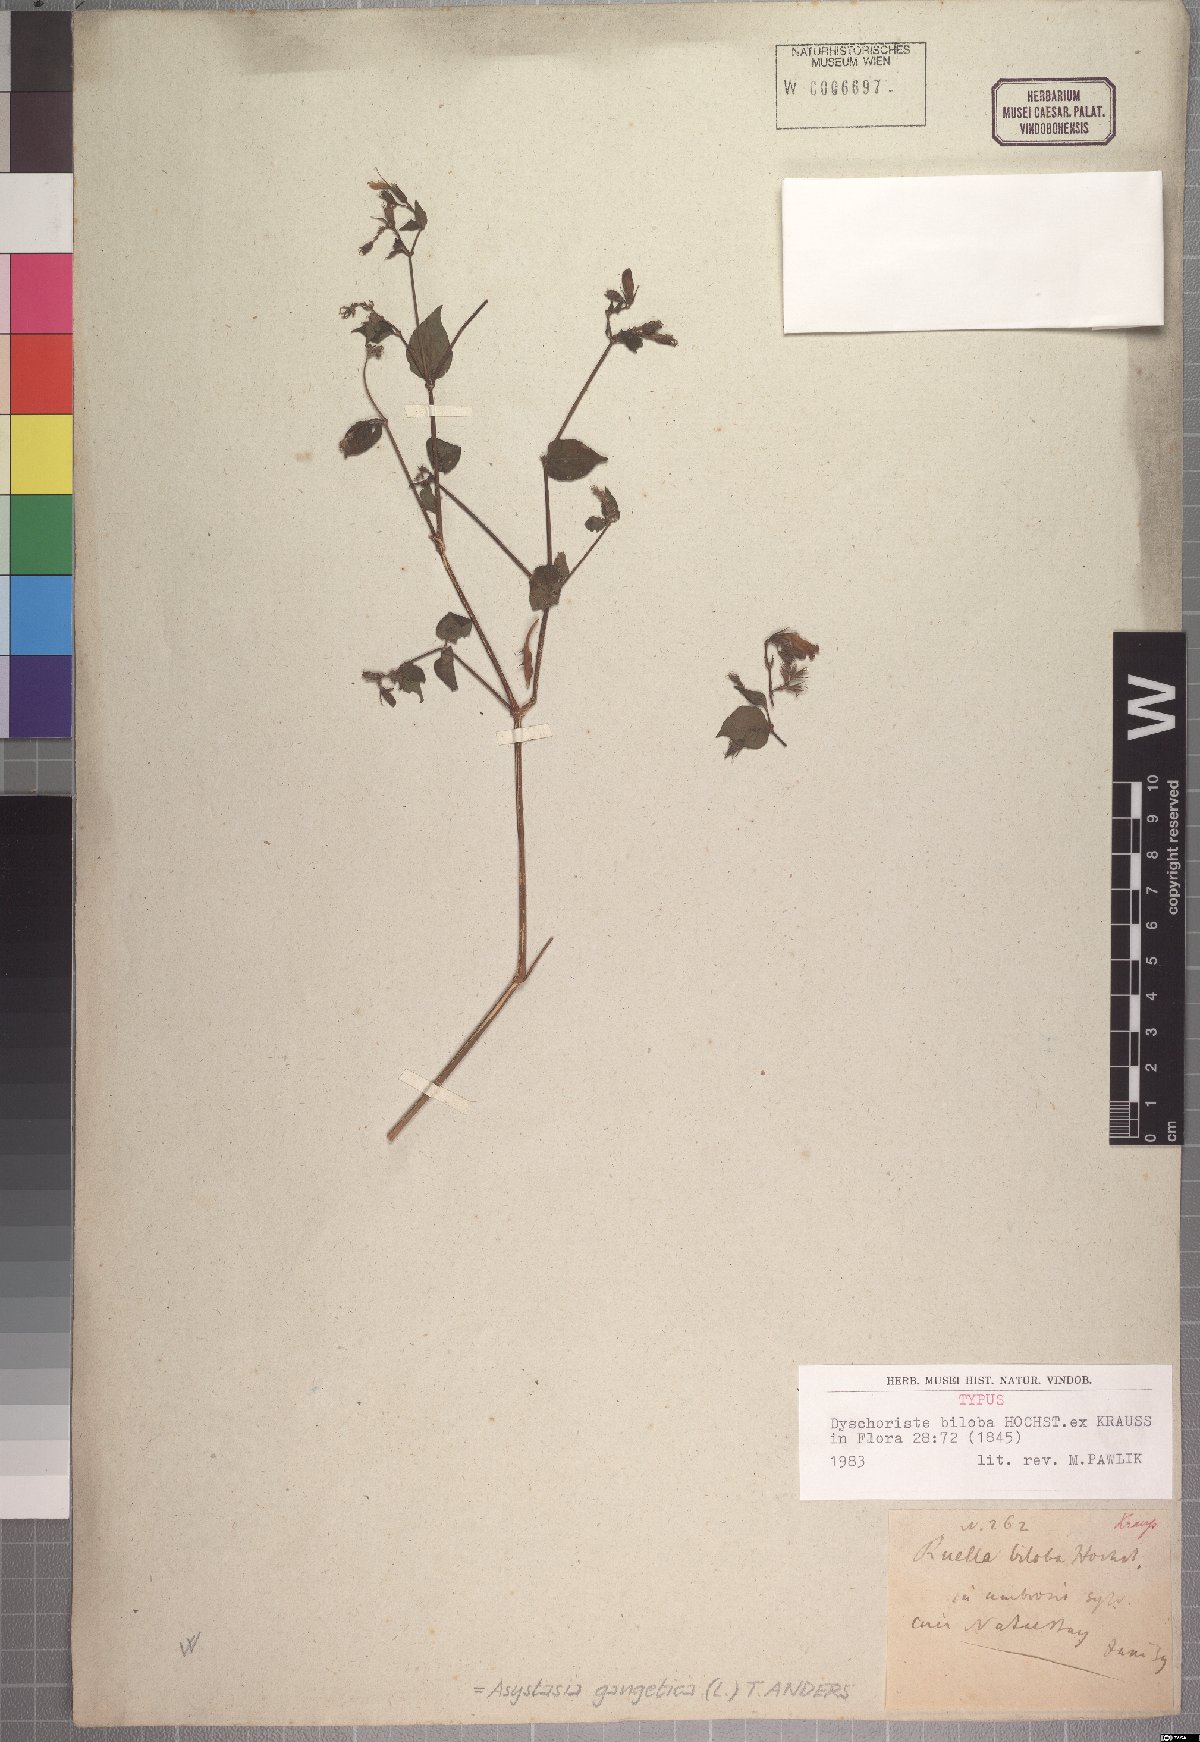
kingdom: Plantae
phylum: Tracheophyta
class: Magnoliopsida
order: Lamiales
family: Acanthaceae
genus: Asystasia
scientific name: Asystasia gangetica
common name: Chinese violet
